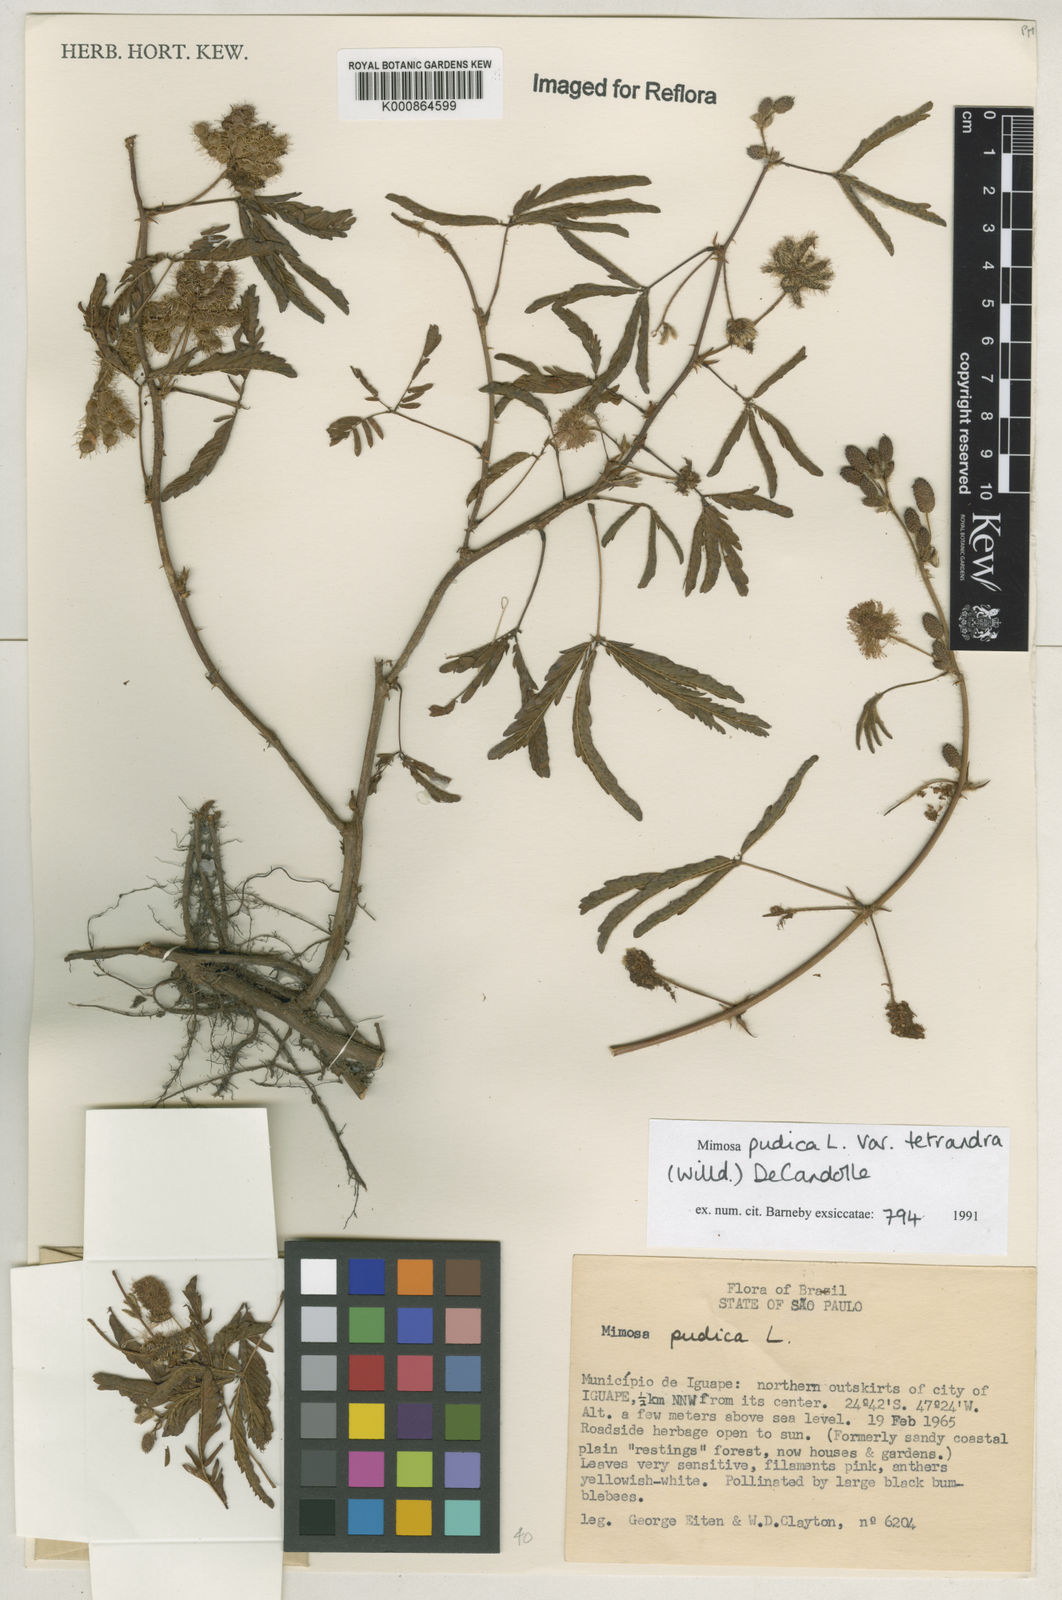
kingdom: Plantae
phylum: Tracheophyta
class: Magnoliopsida
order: Fabales
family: Fabaceae
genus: Mimosa
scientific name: Mimosa pudica
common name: Sensitive plant
